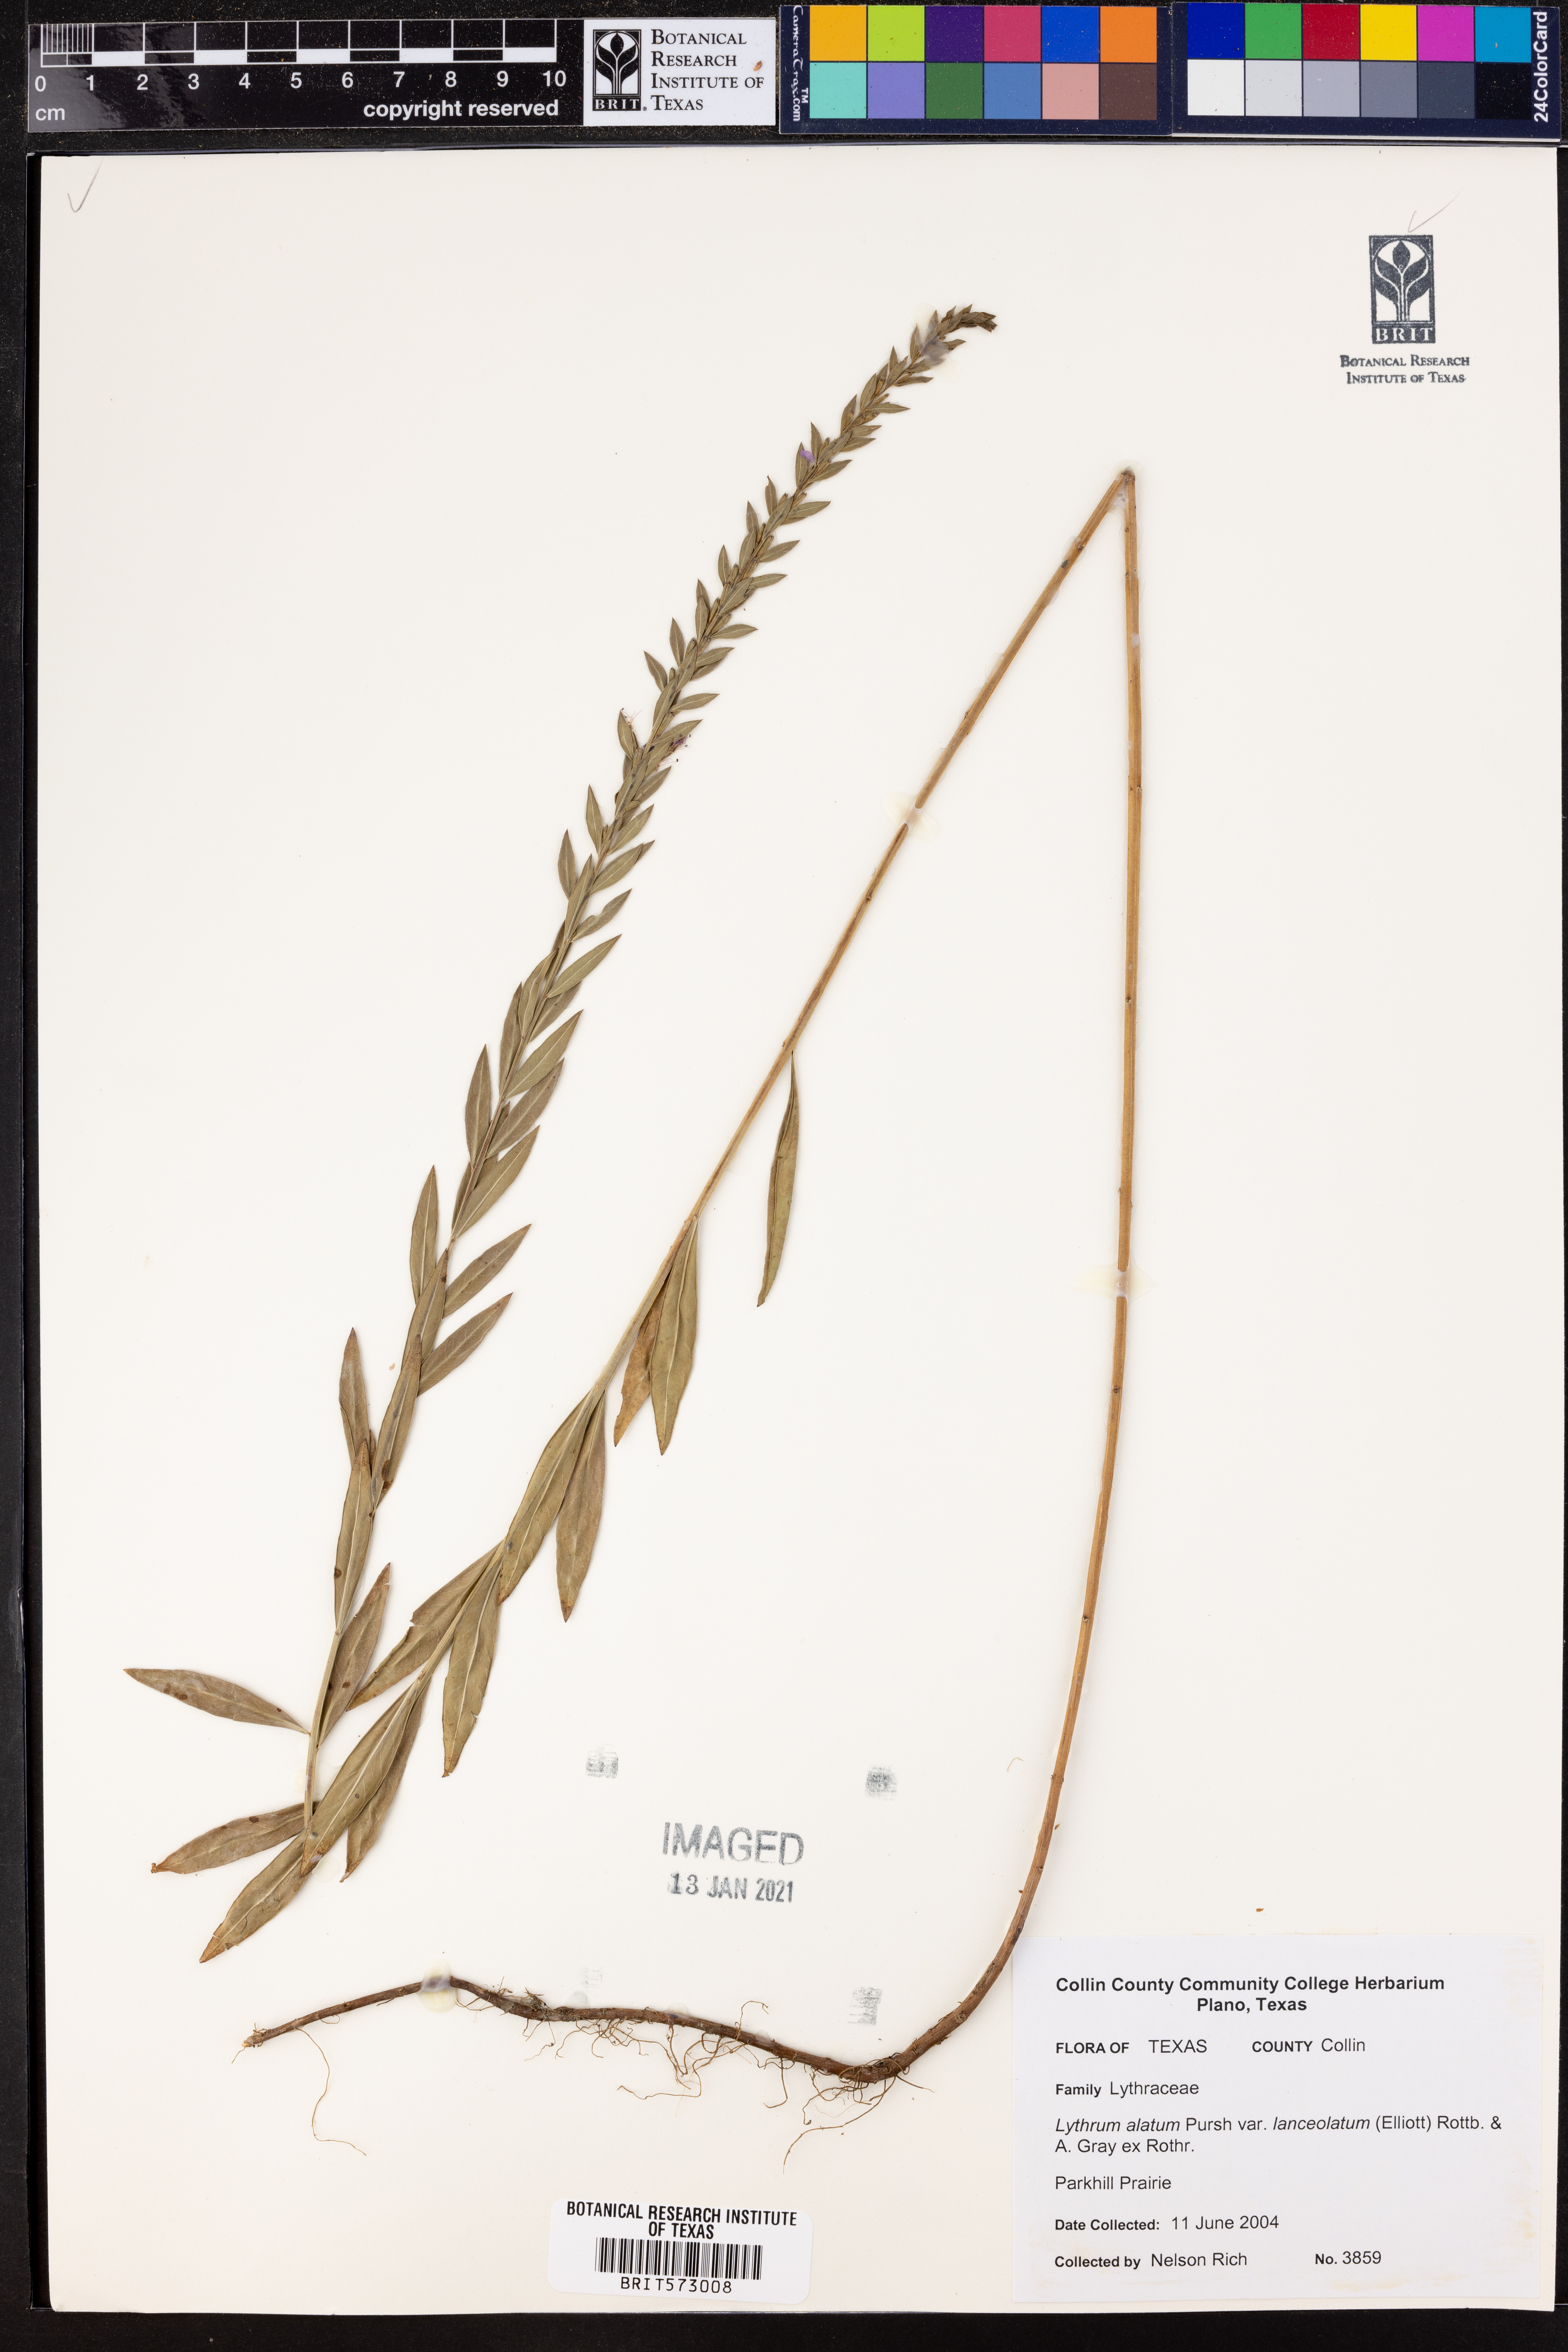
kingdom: Plantae
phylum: Tracheophyta
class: Magnoliopsida
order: Myrtales
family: Lythraceae
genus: Lythrum
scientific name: Lythrum alatum
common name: Winged loosestrife
